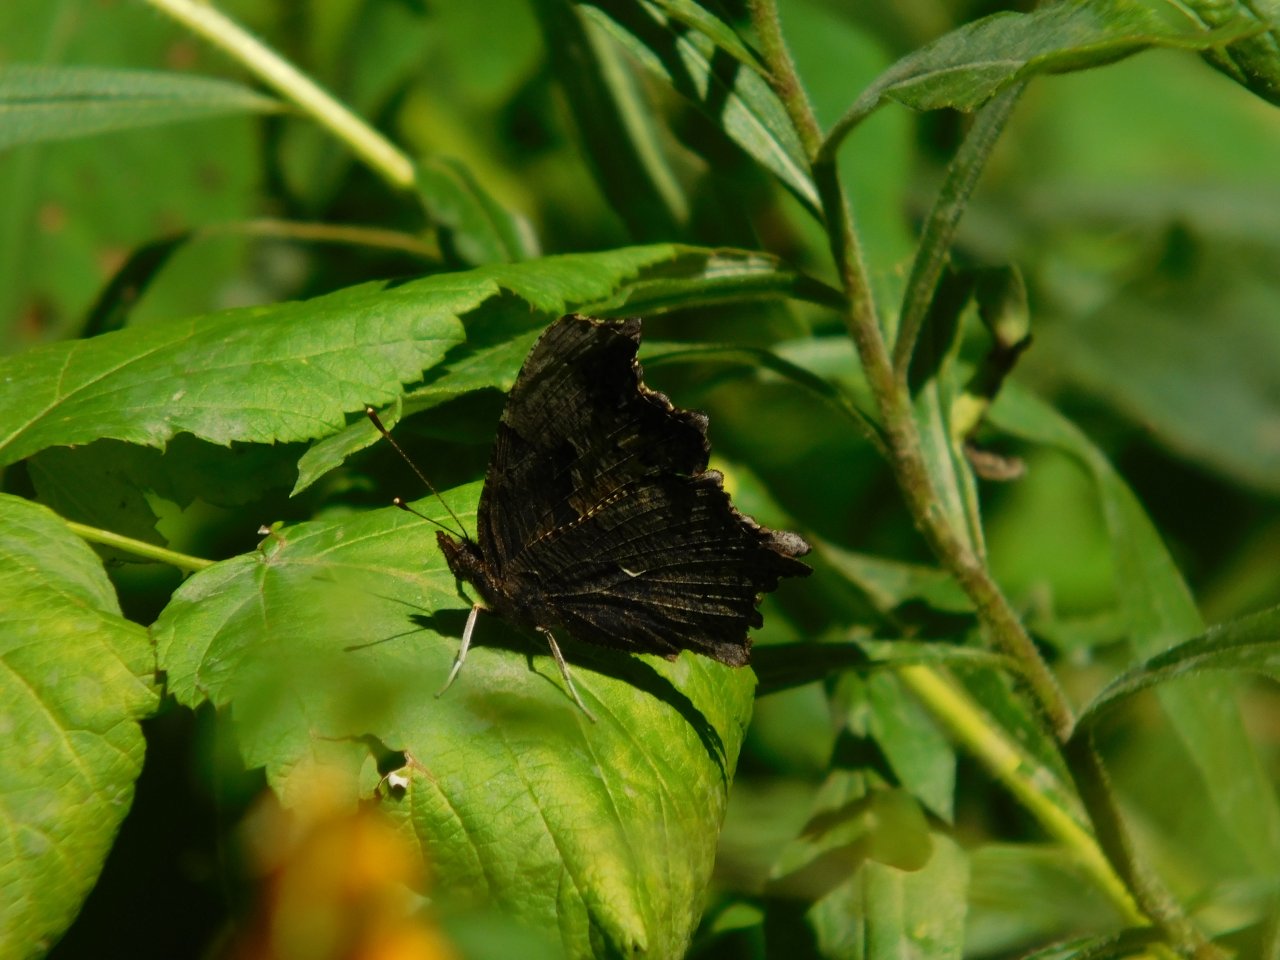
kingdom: Animalia
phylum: Arthropoda
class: Insecta
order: Lepidoptera
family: Nymphalidae
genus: Polygonia
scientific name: Polygonia progne
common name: Gray Comma
